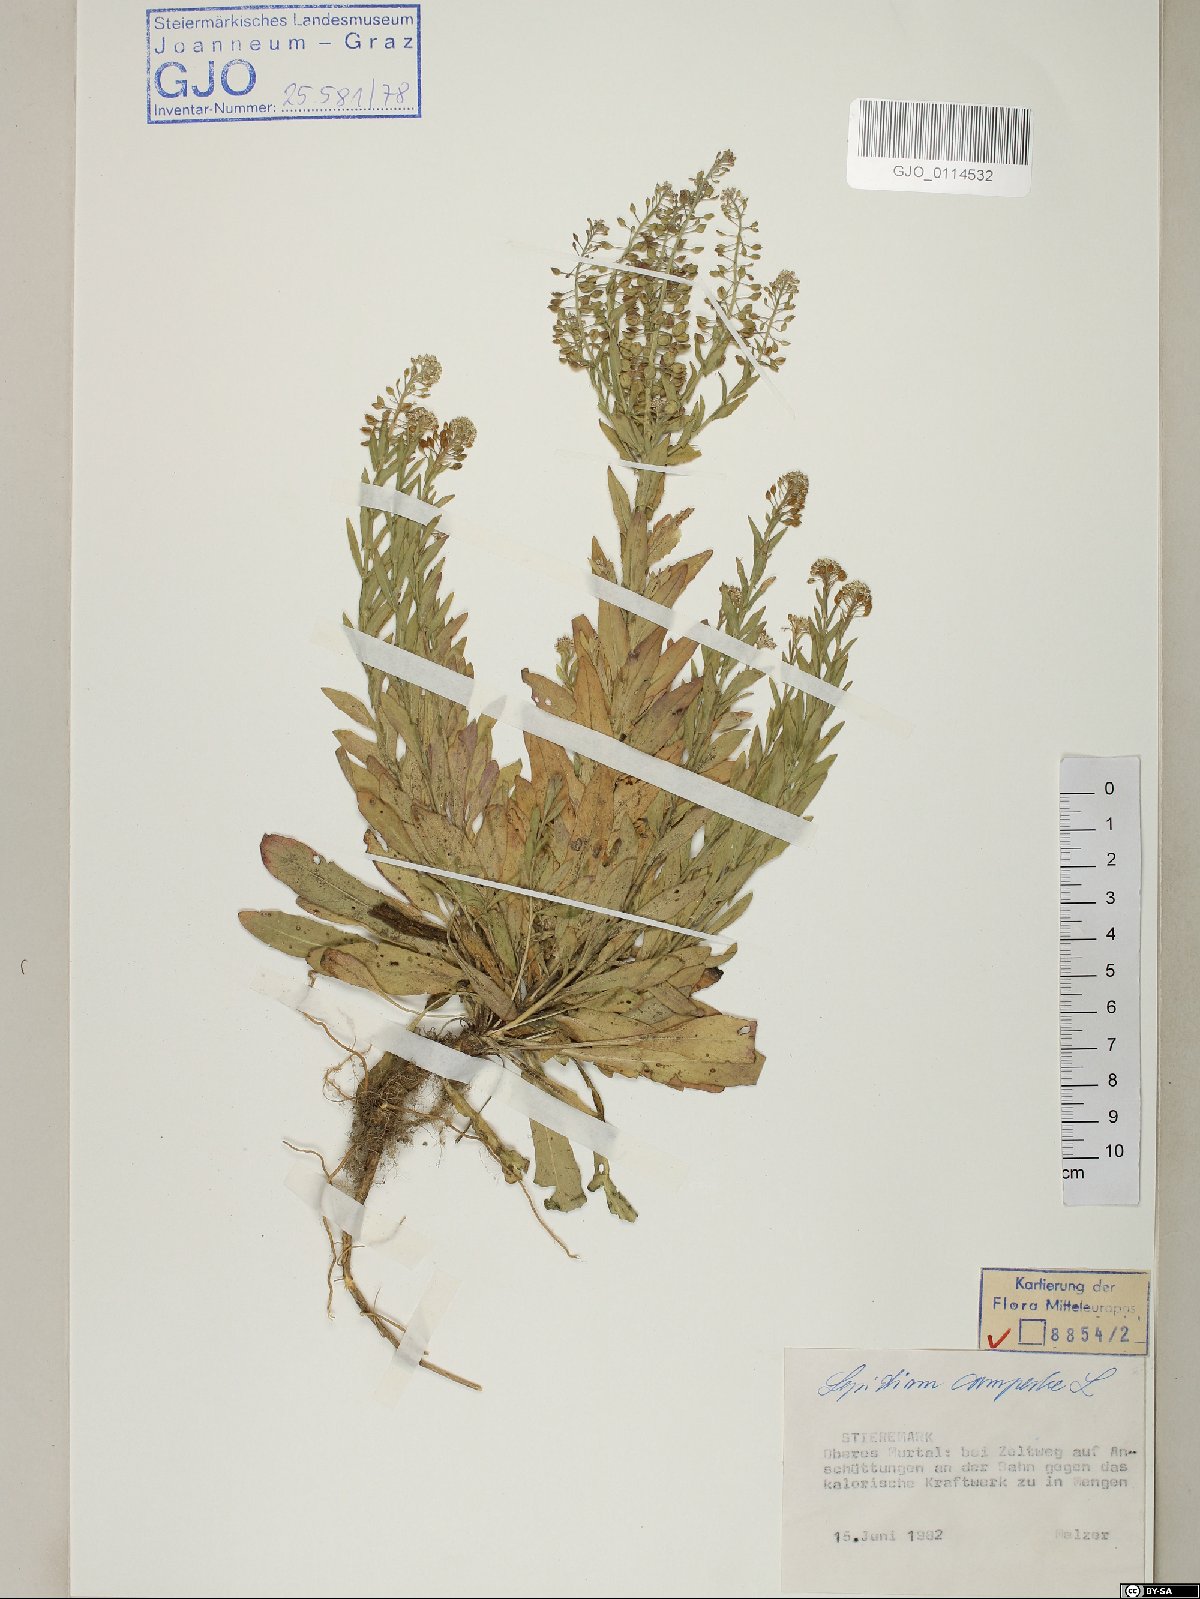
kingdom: Plantae
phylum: Tracheophyta
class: Magnoliopsida
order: Brassicales
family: Brassicaceae
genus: Lepidium
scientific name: Lepidium campestre
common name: Field pepperwort
